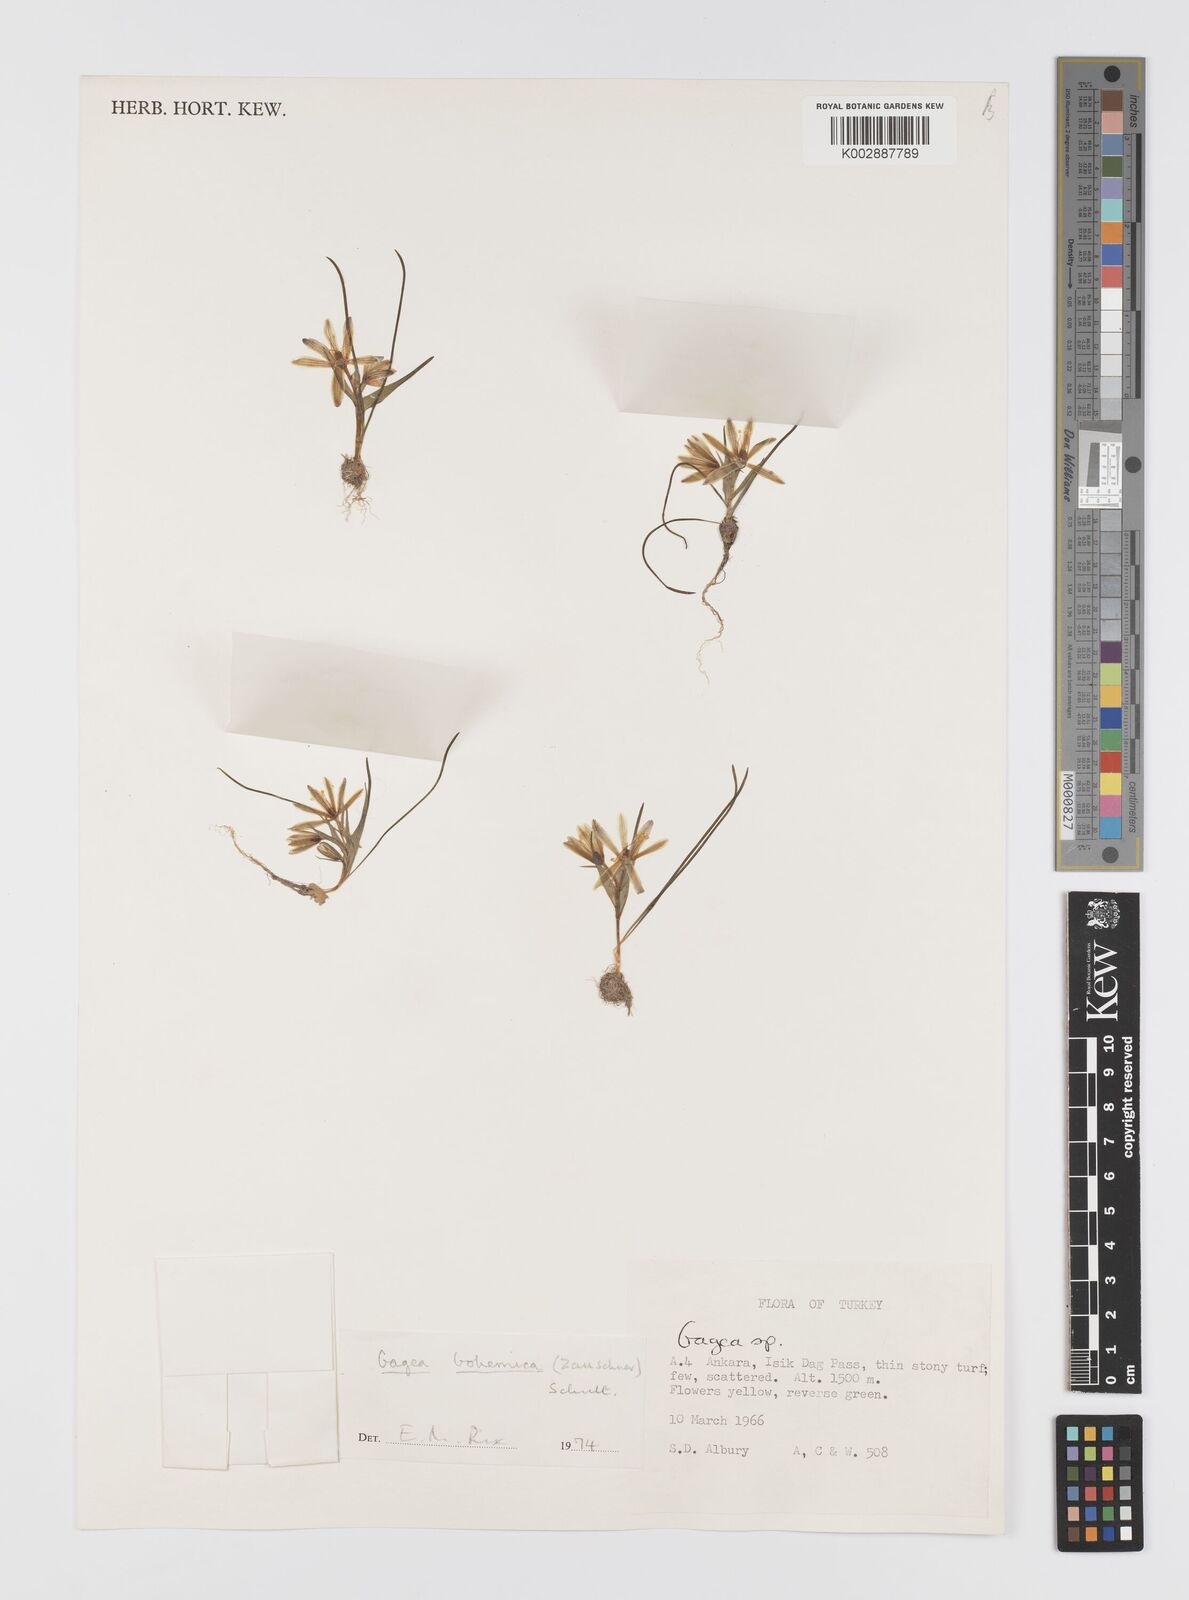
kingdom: Plantae
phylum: Tracheophyta
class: Liliopsida
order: Liliales
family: Liliaceae
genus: Gagea
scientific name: Gagea bohemica
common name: Early star-of-bethlehem
